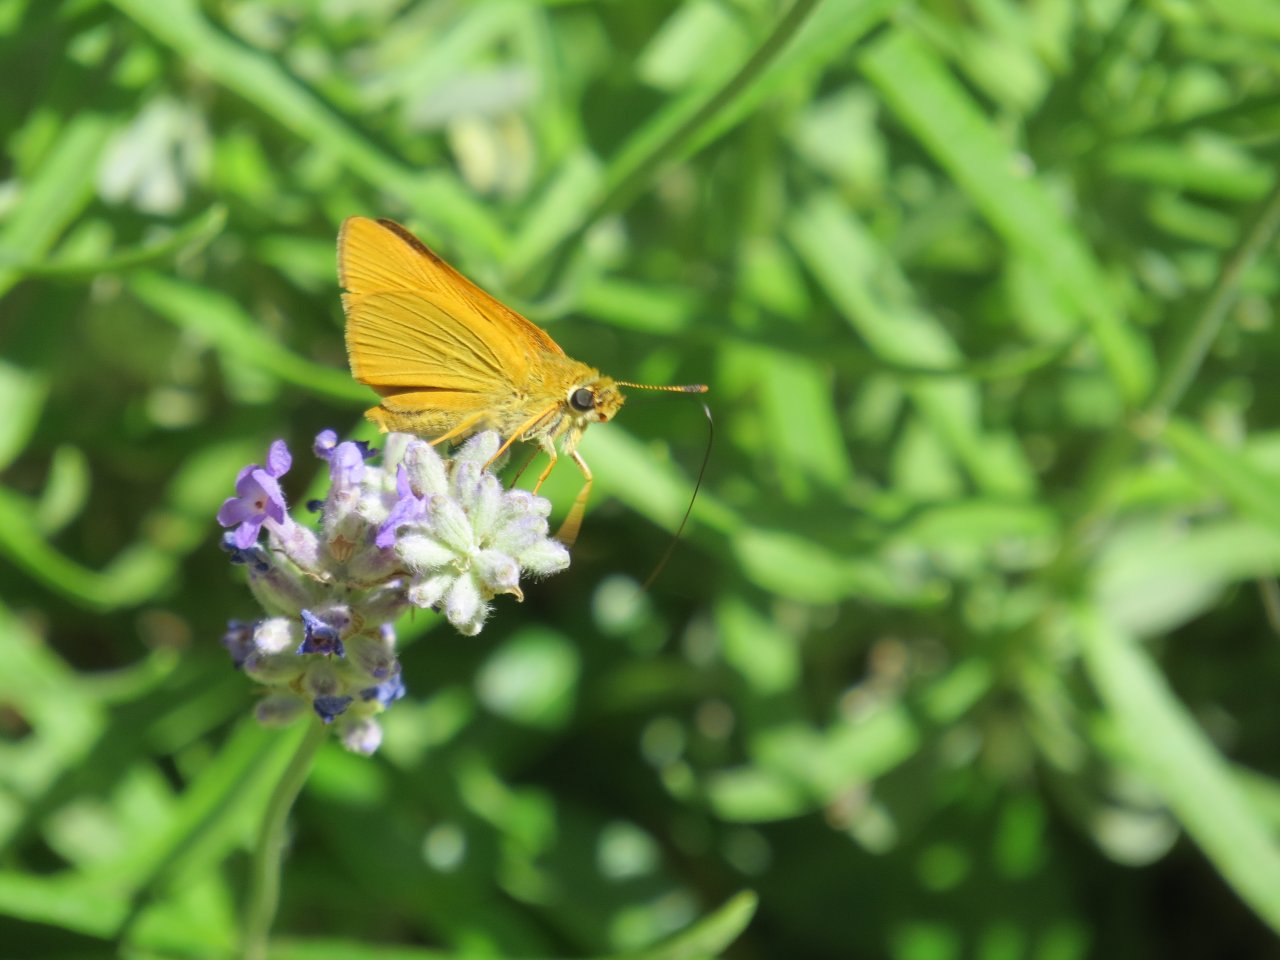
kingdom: Animalia
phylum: Arthropoda
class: Insecta
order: Lepidoptera
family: Hesperiidae
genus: Atrytone
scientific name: Atrytone delaware
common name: Delaware Skipper
